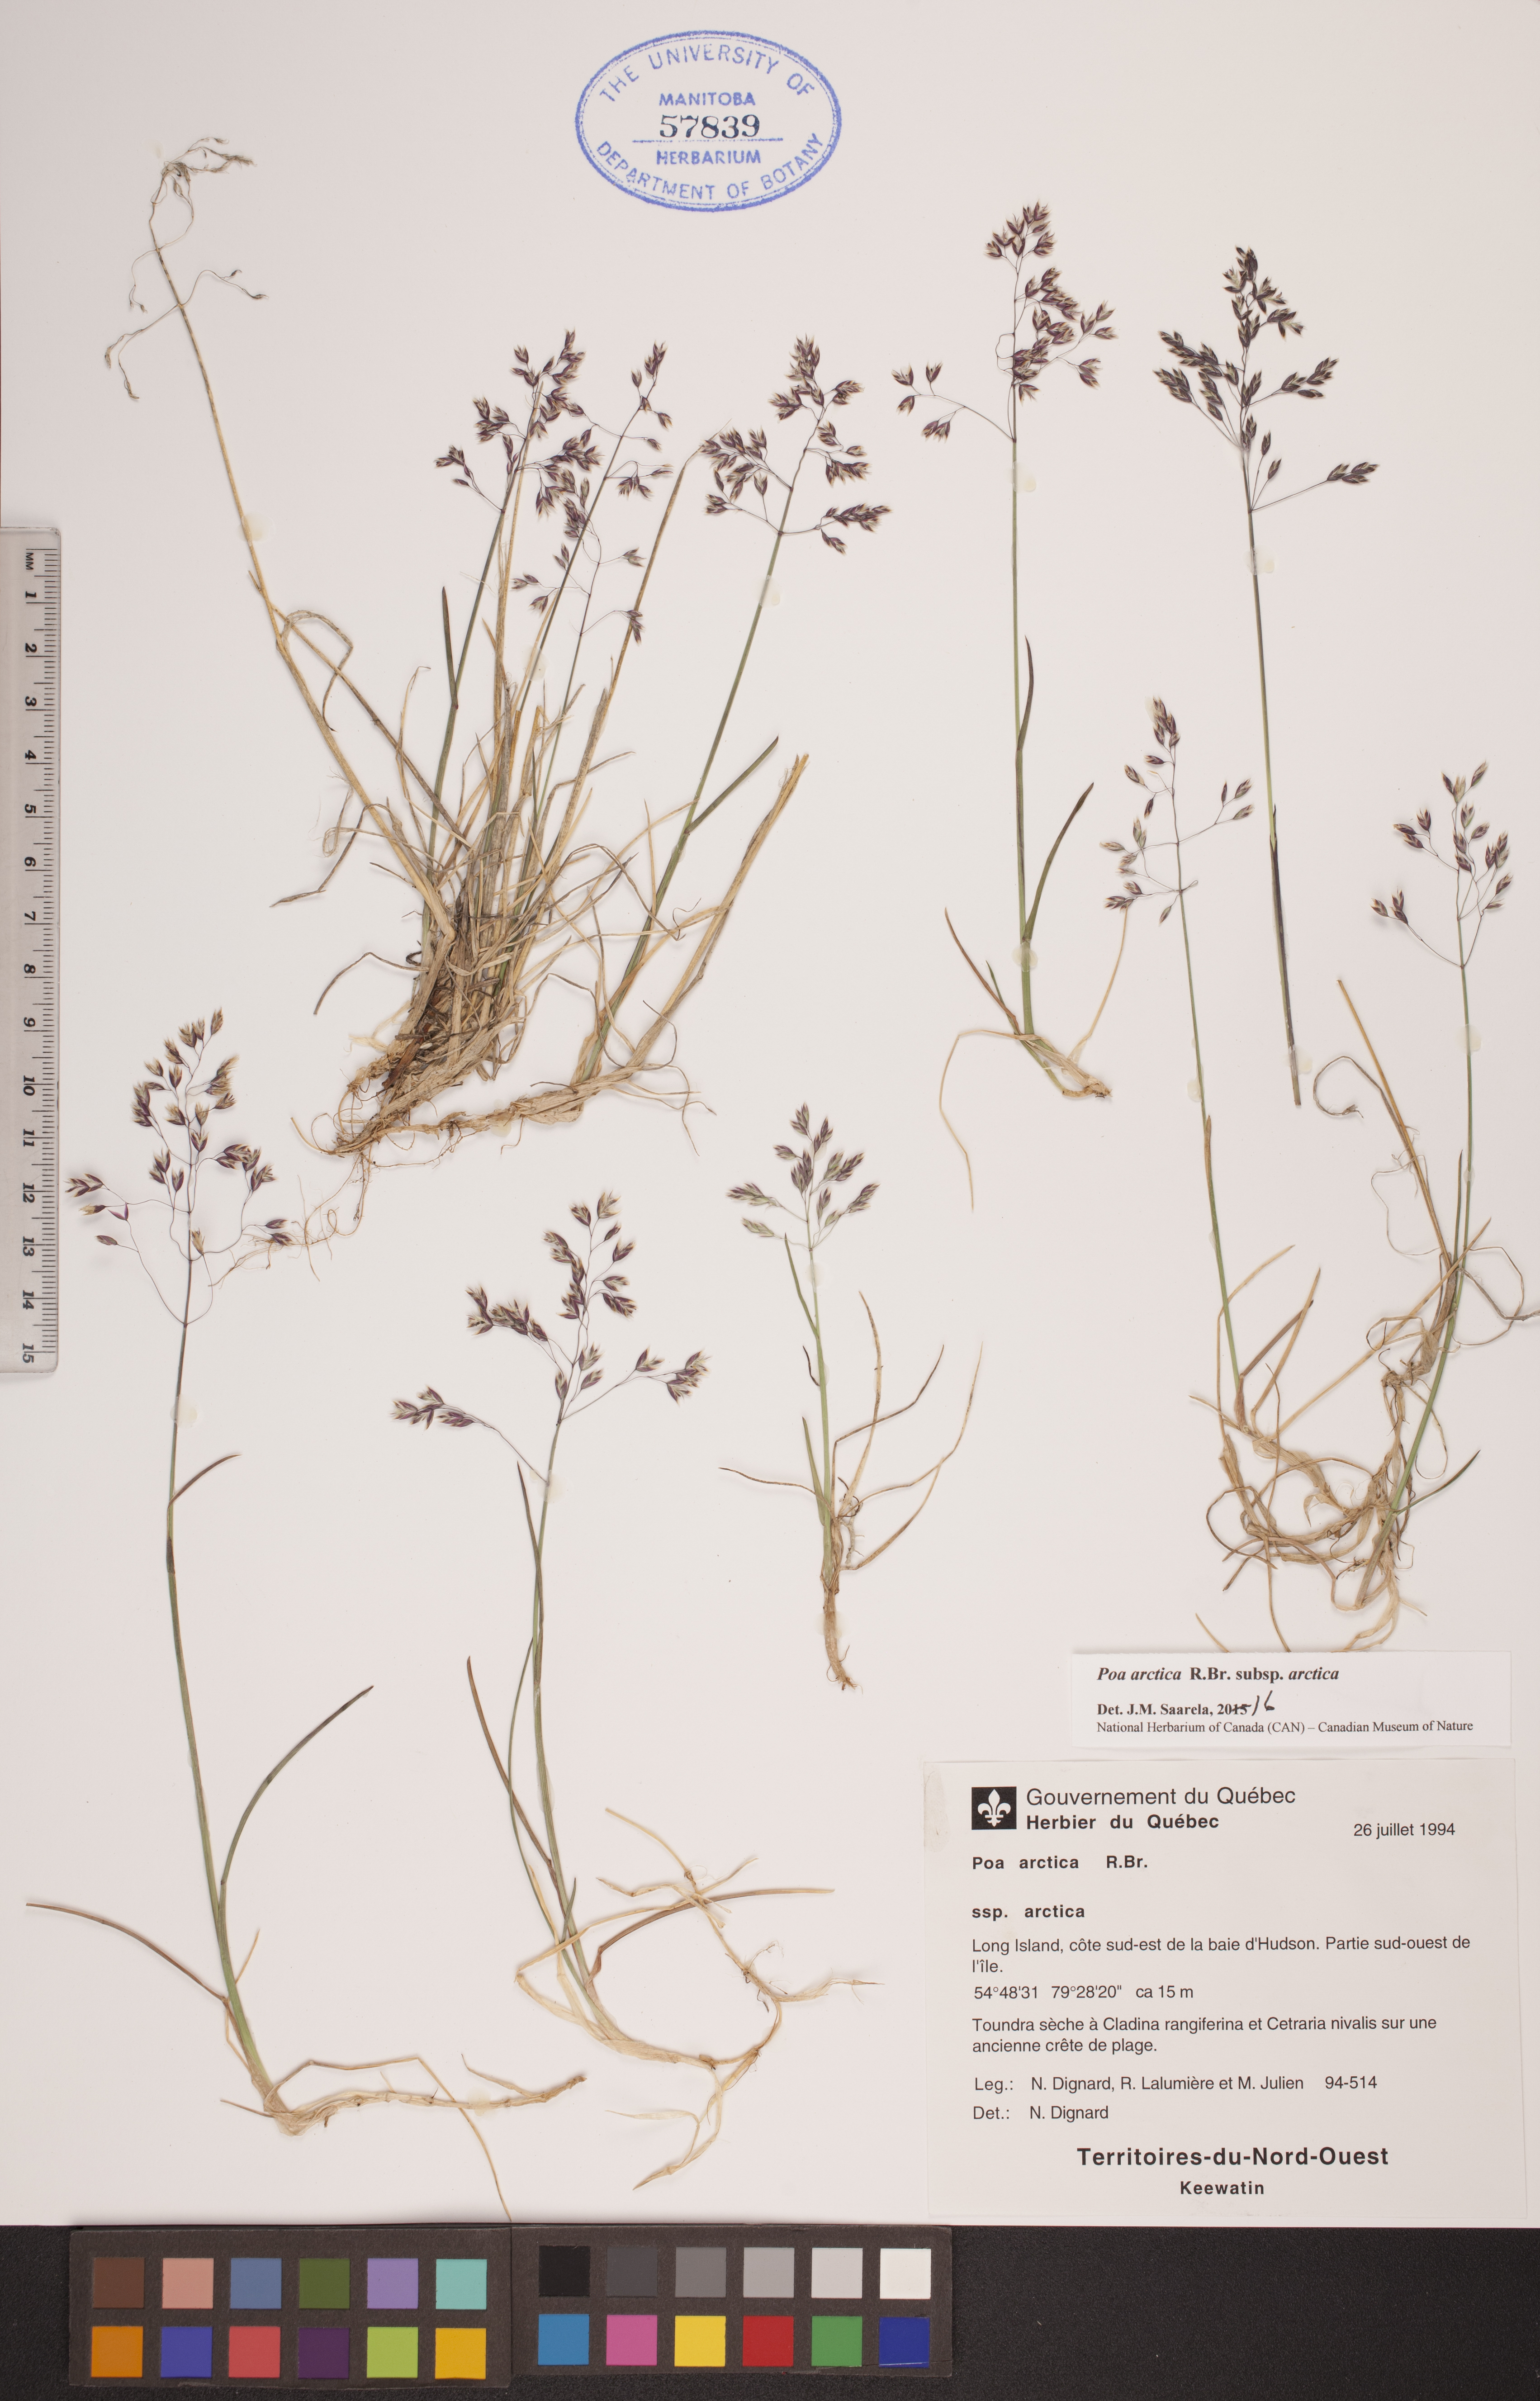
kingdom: Plantae
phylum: Tracheophyta
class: Liliopsida
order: Poales
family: Poaceae
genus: Poa
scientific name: Poa arctica
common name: Arctic bluegrass
